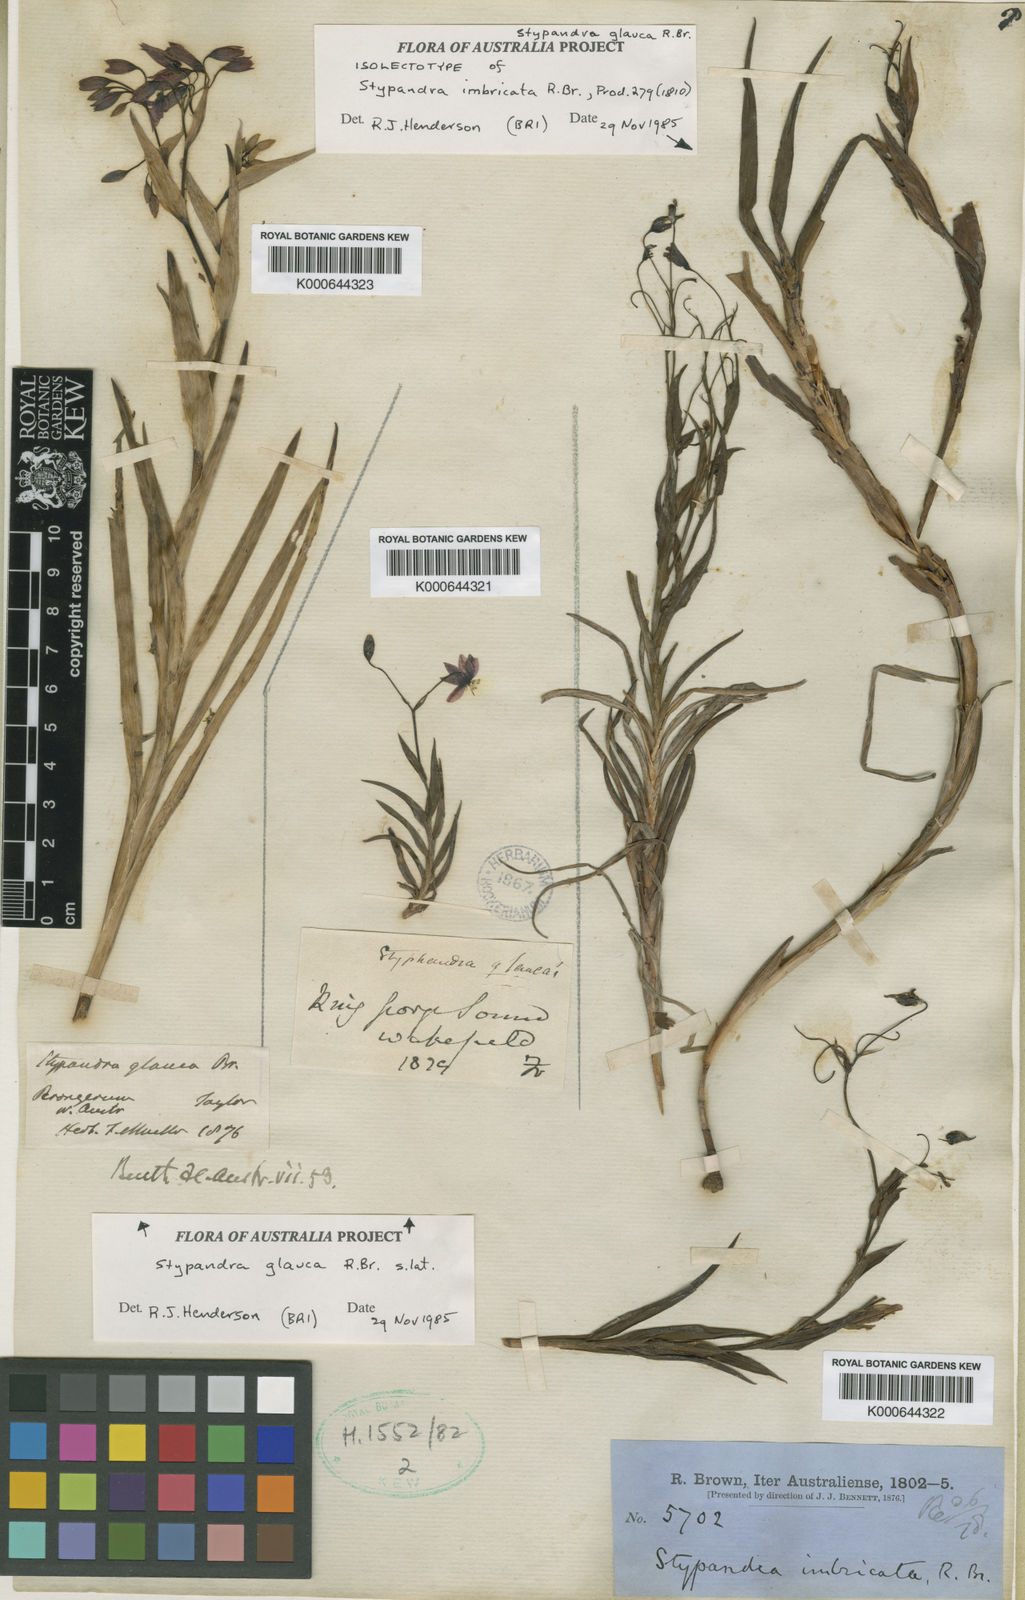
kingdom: Plantae
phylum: Tracheophyta
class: Liliopsida
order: Asparagales
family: Asphodelaceae
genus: Stypandra
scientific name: Stypandra glauca
